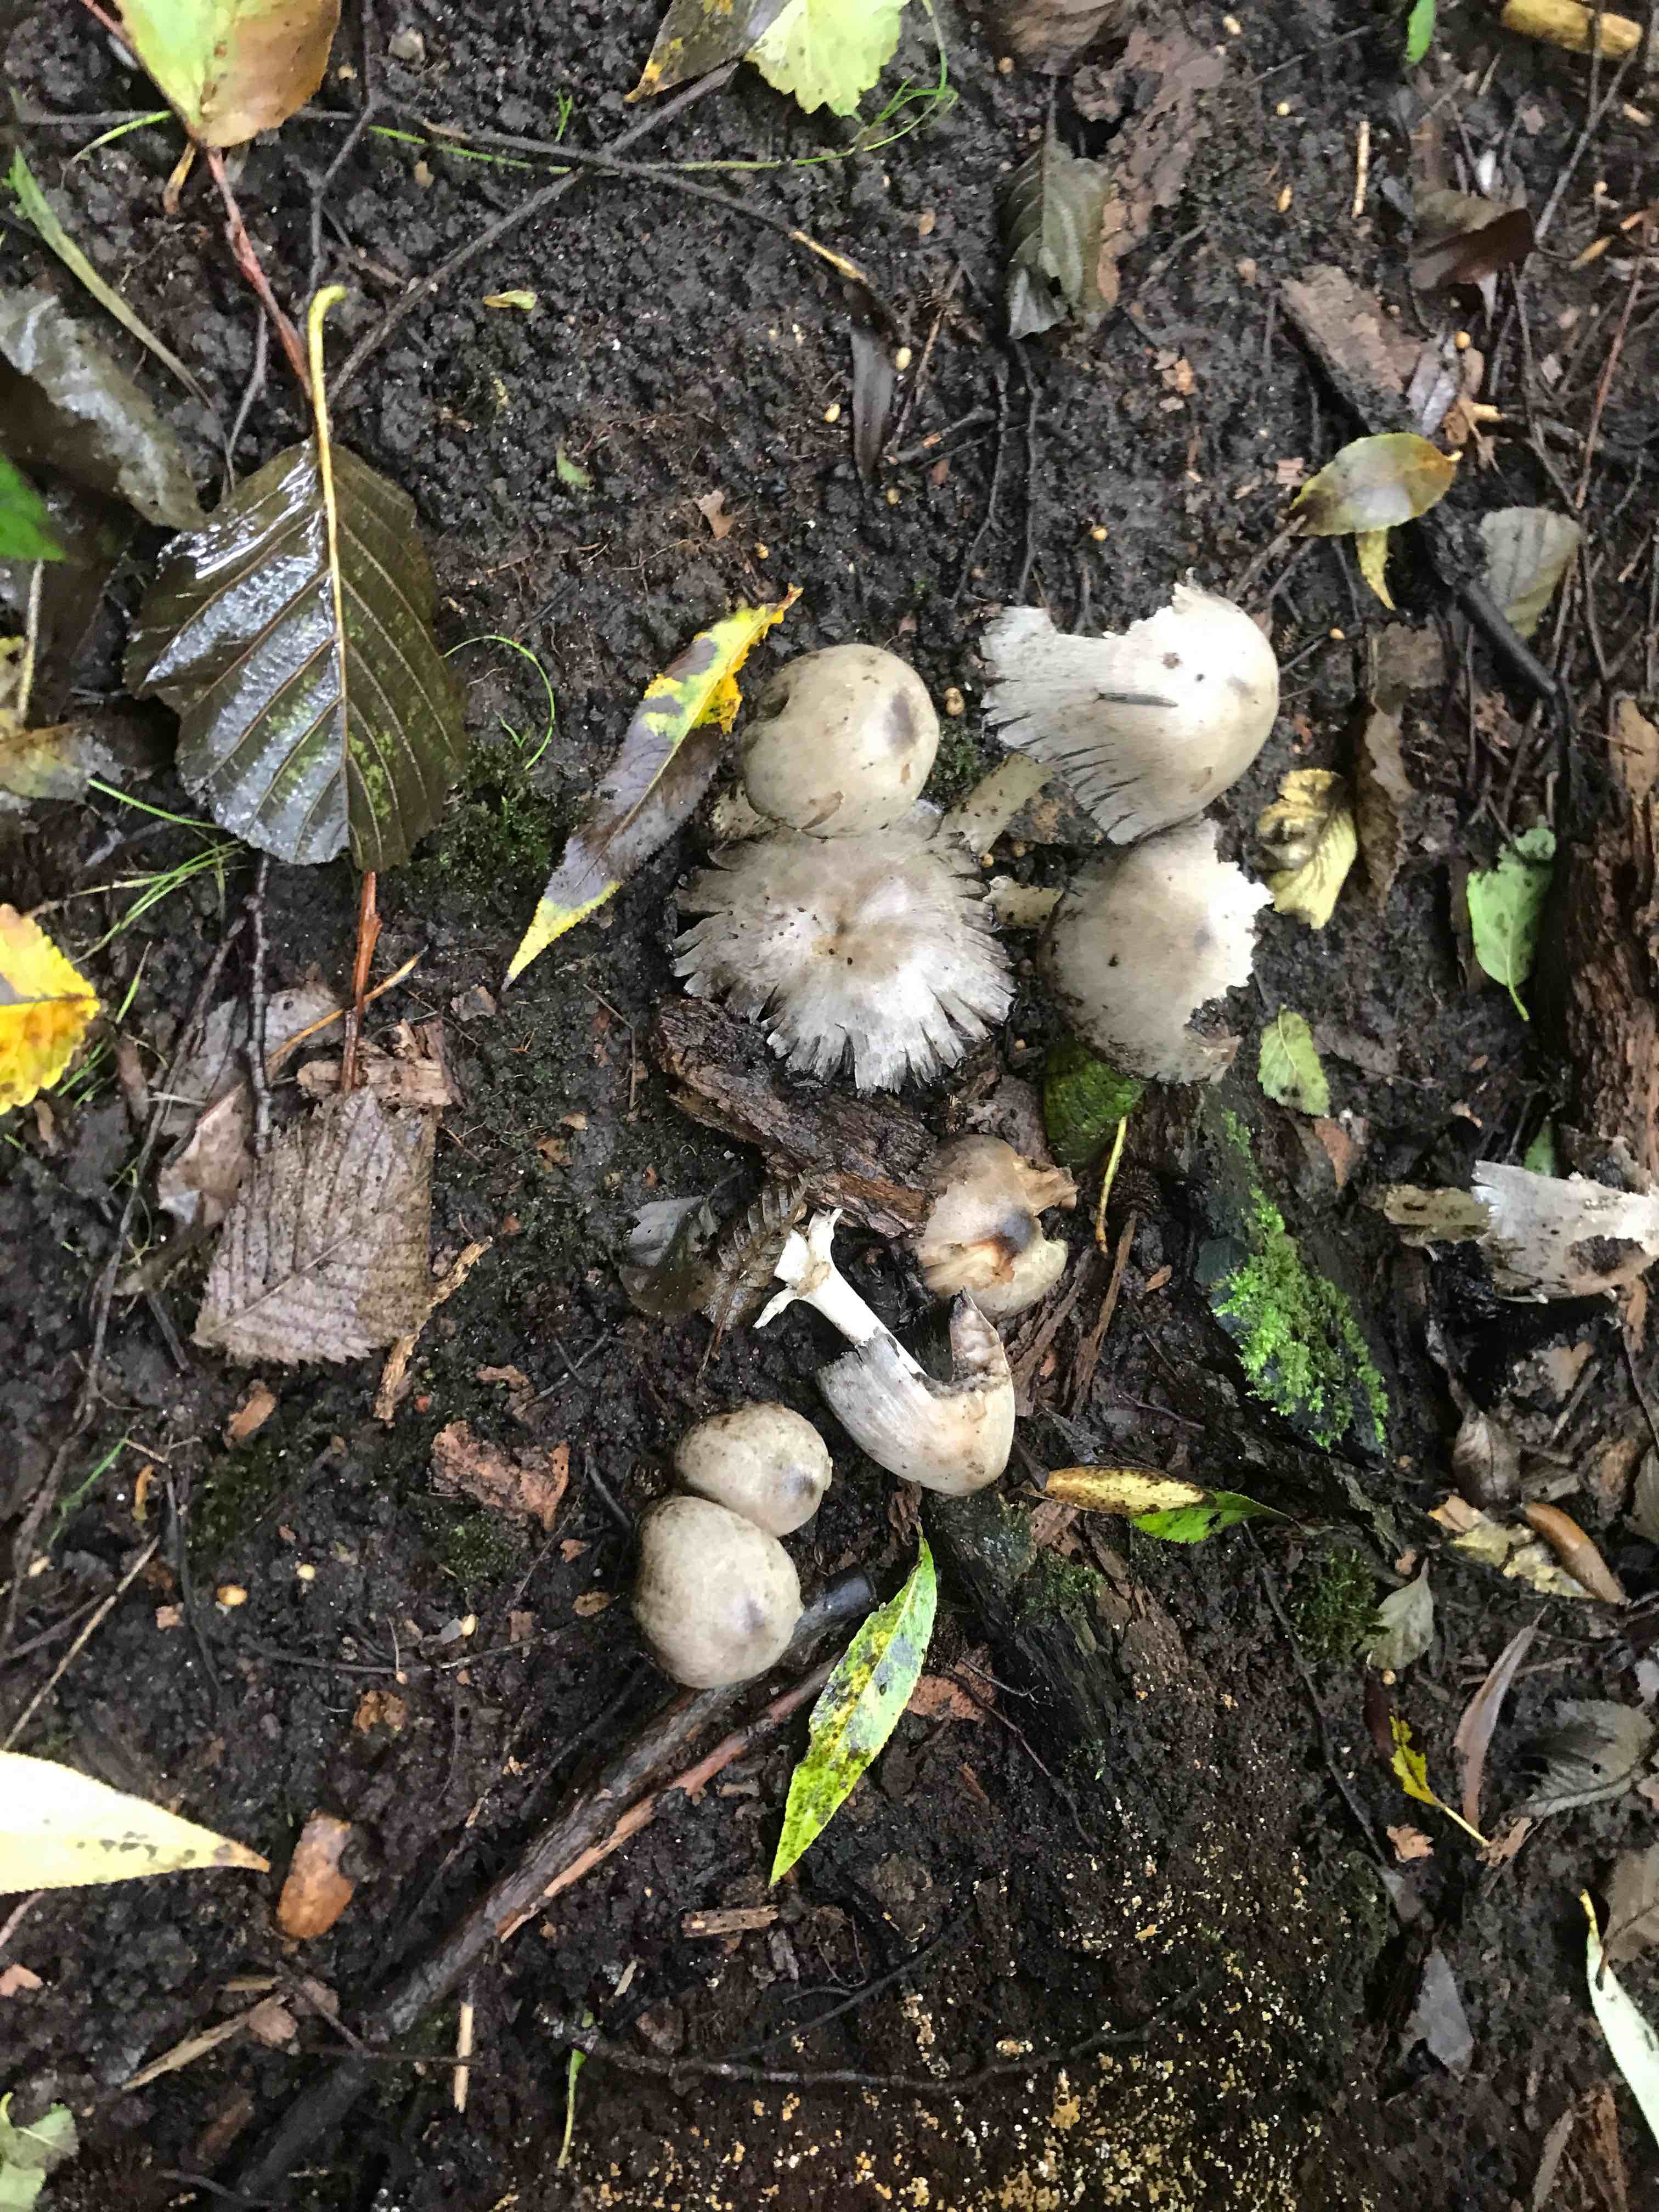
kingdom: Fungi
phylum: Basidiomycota
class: Agaricomycetes
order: Agaricales
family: Psathyrellaceae
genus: Coprinopsis
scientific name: Coprinopsis atramentaria
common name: almindelig blækhat
